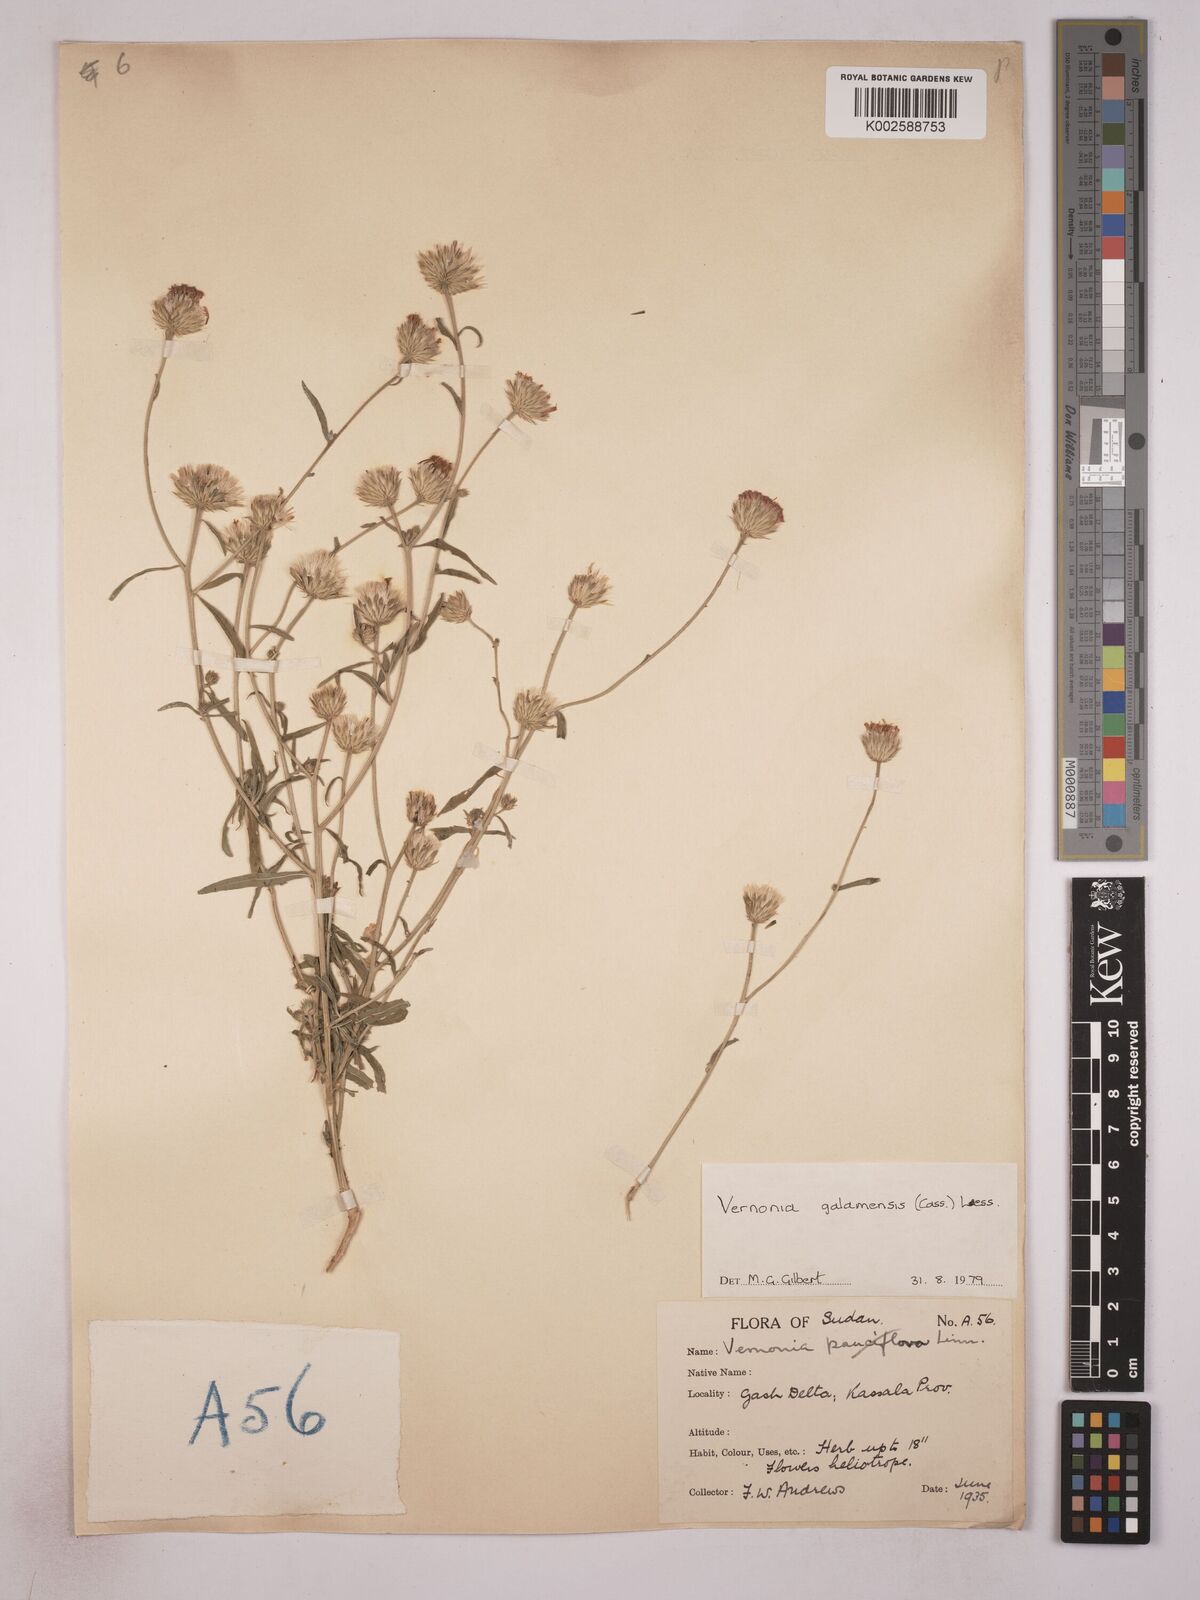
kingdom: Plantae
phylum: Tracheophyta
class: Magnoliopsida
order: Asterales
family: Asteraceae
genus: Vernonia
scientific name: Vernonia galamensis
